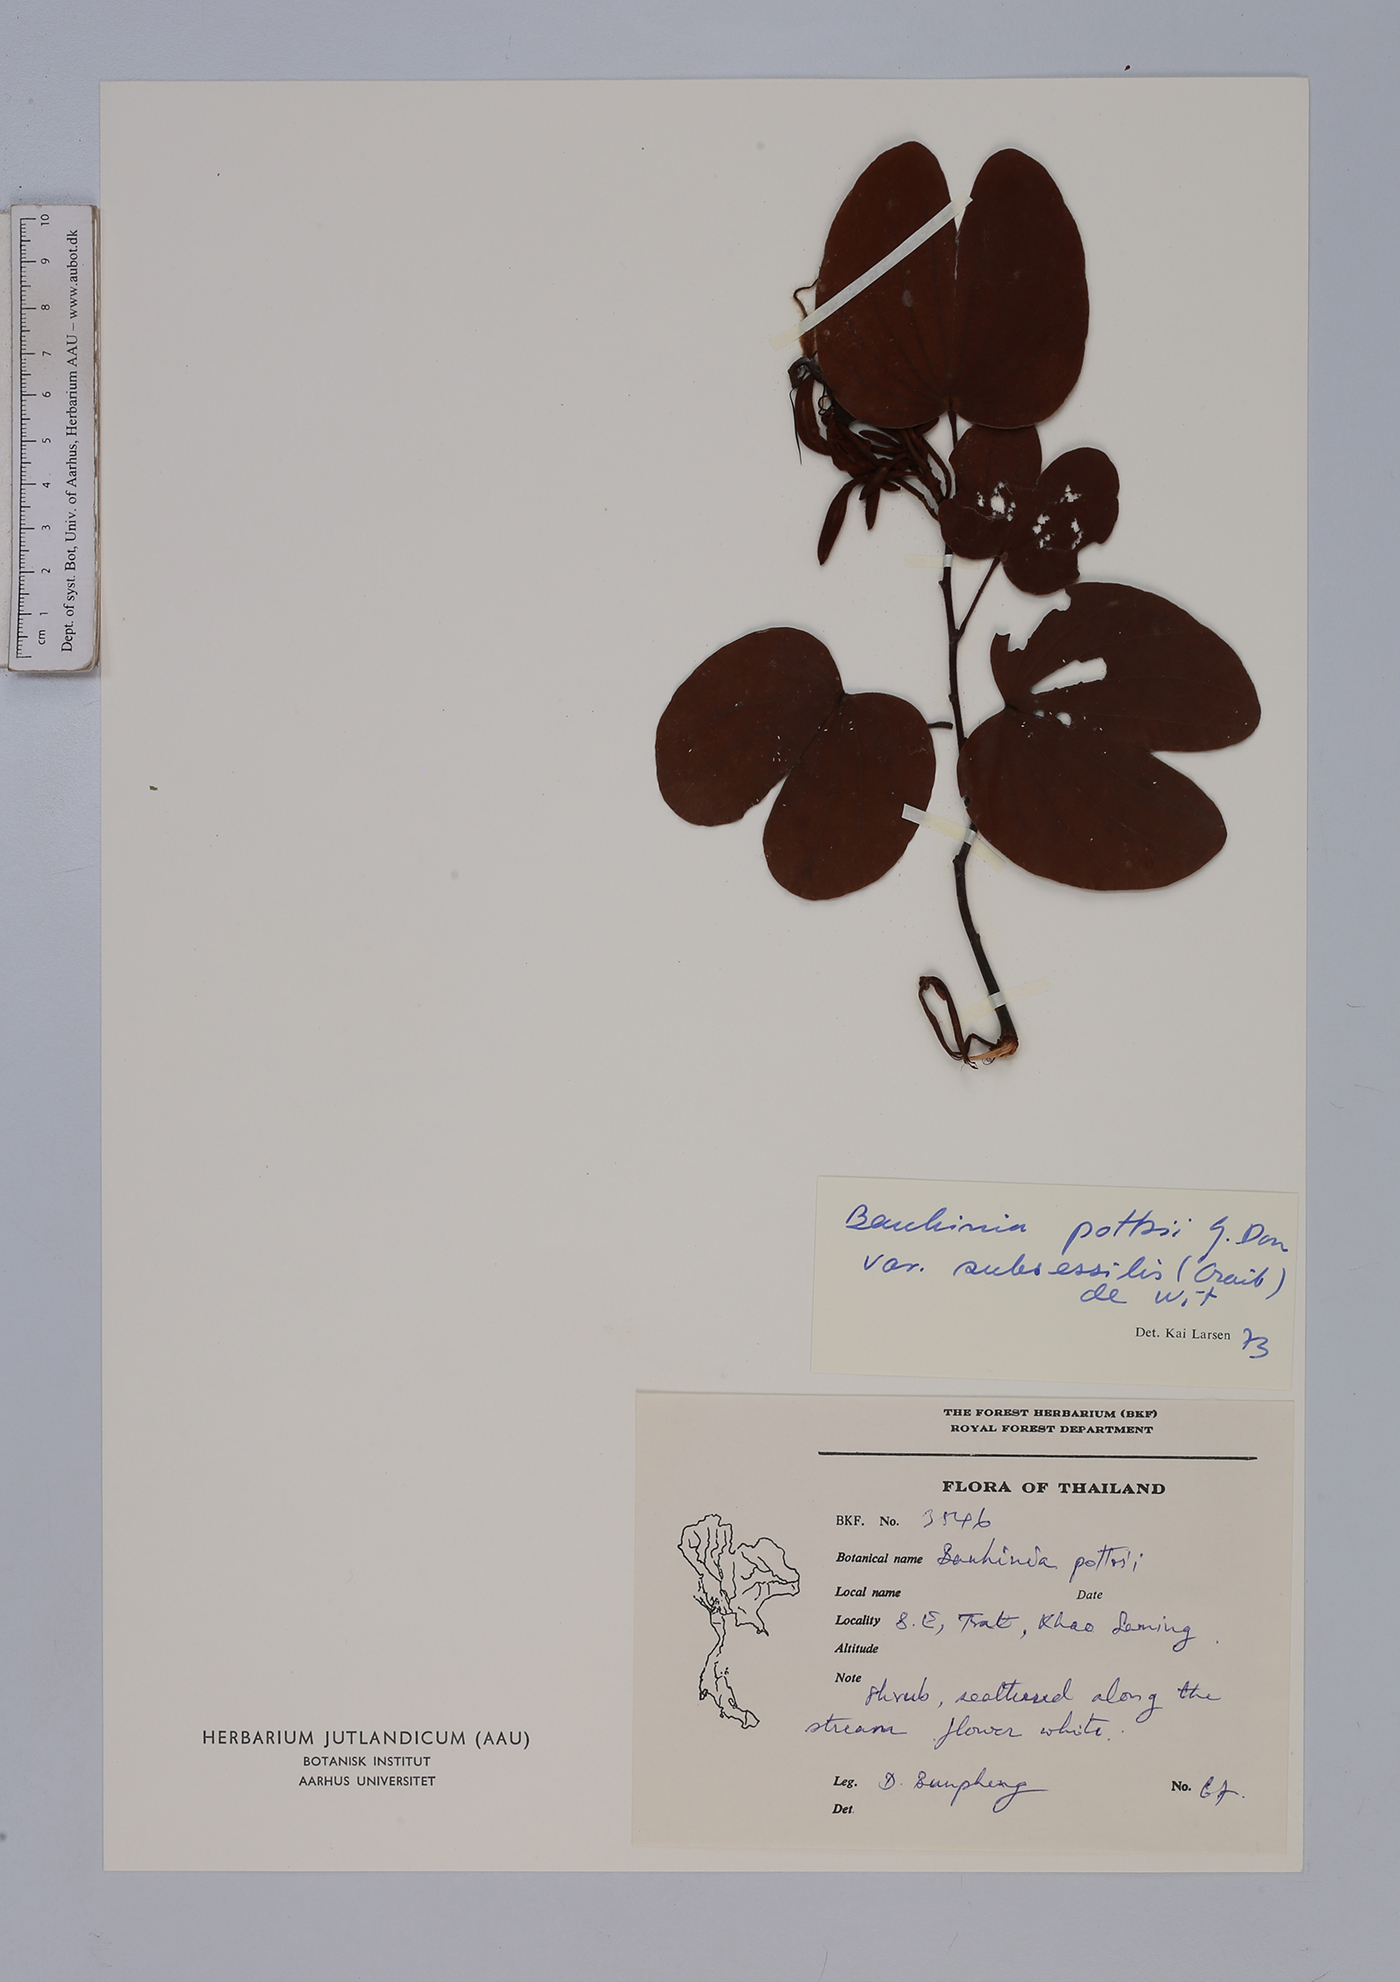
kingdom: Plantae
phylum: Tracheophyta
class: Magnoliopsida
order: Fabales
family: Fabaceae
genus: Bauhinia
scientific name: Bauhinia pottsii
